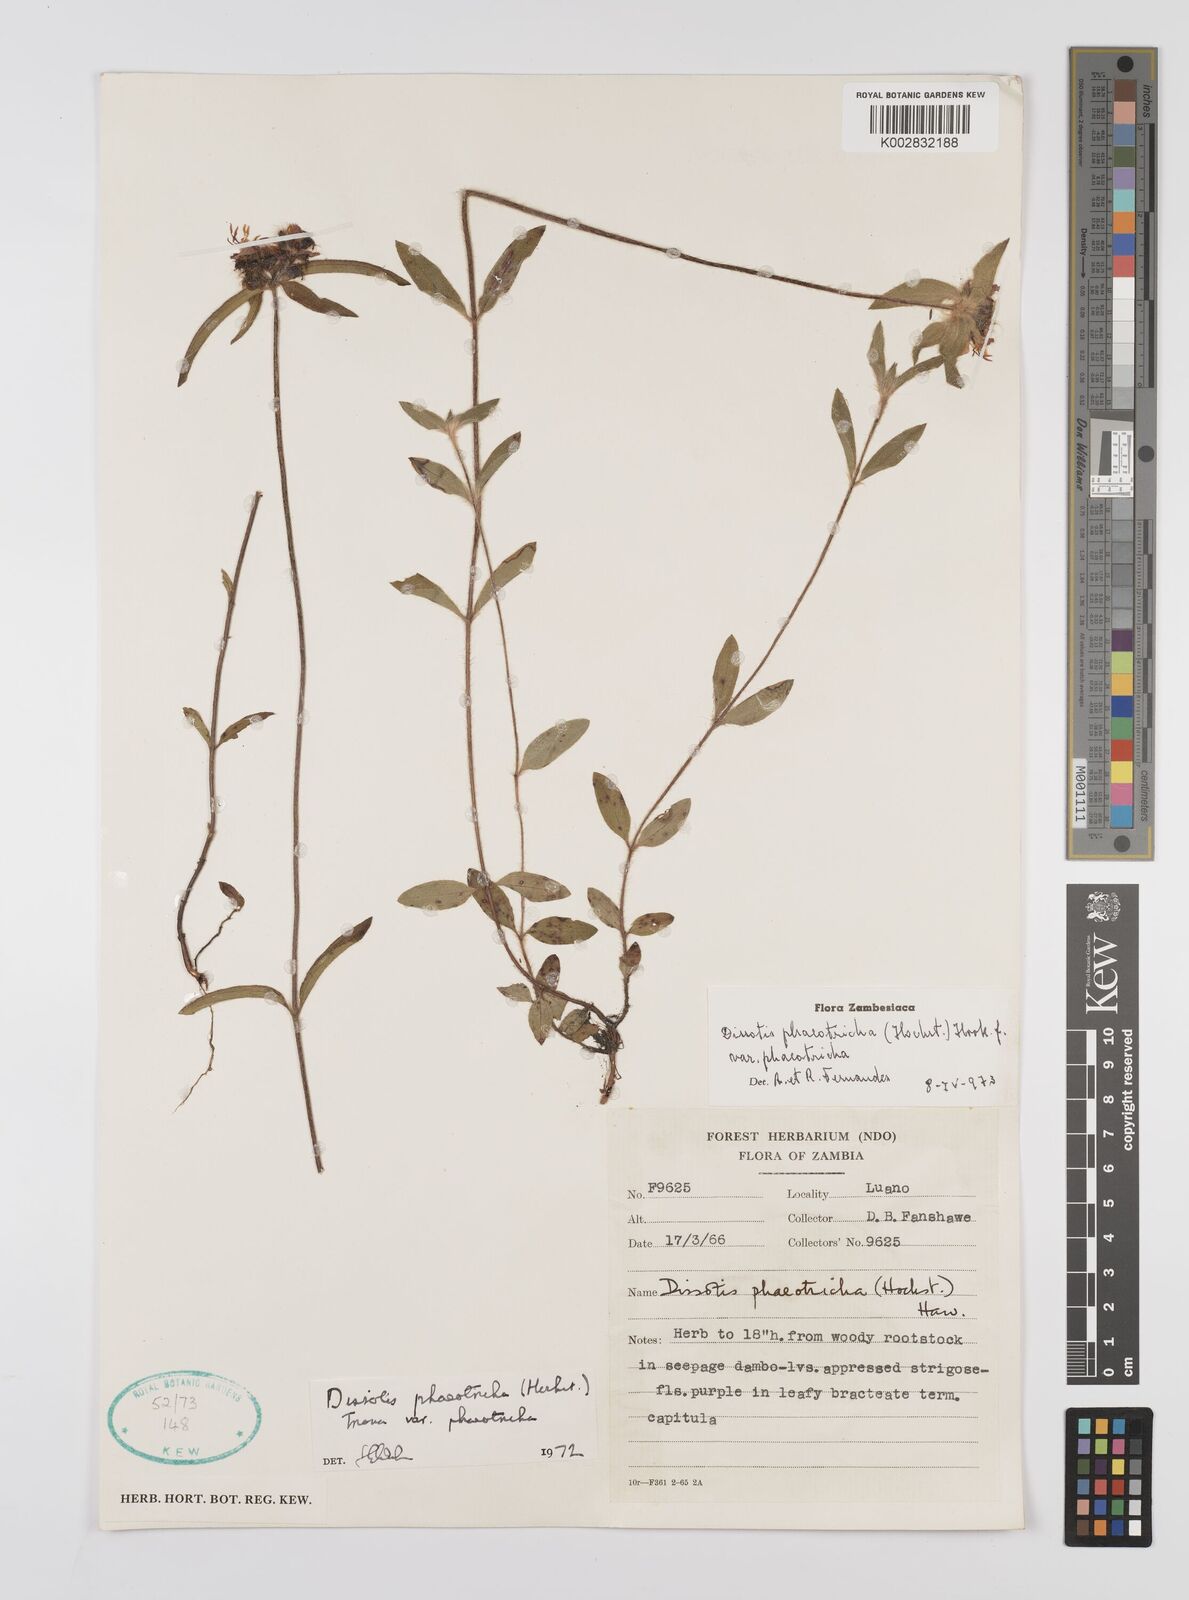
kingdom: Plantae
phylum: Tracheophyta
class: Magnoliopsida
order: Myrtales
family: Melastomataceae
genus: Antherotoma
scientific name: Antherotoma phaeotricha
